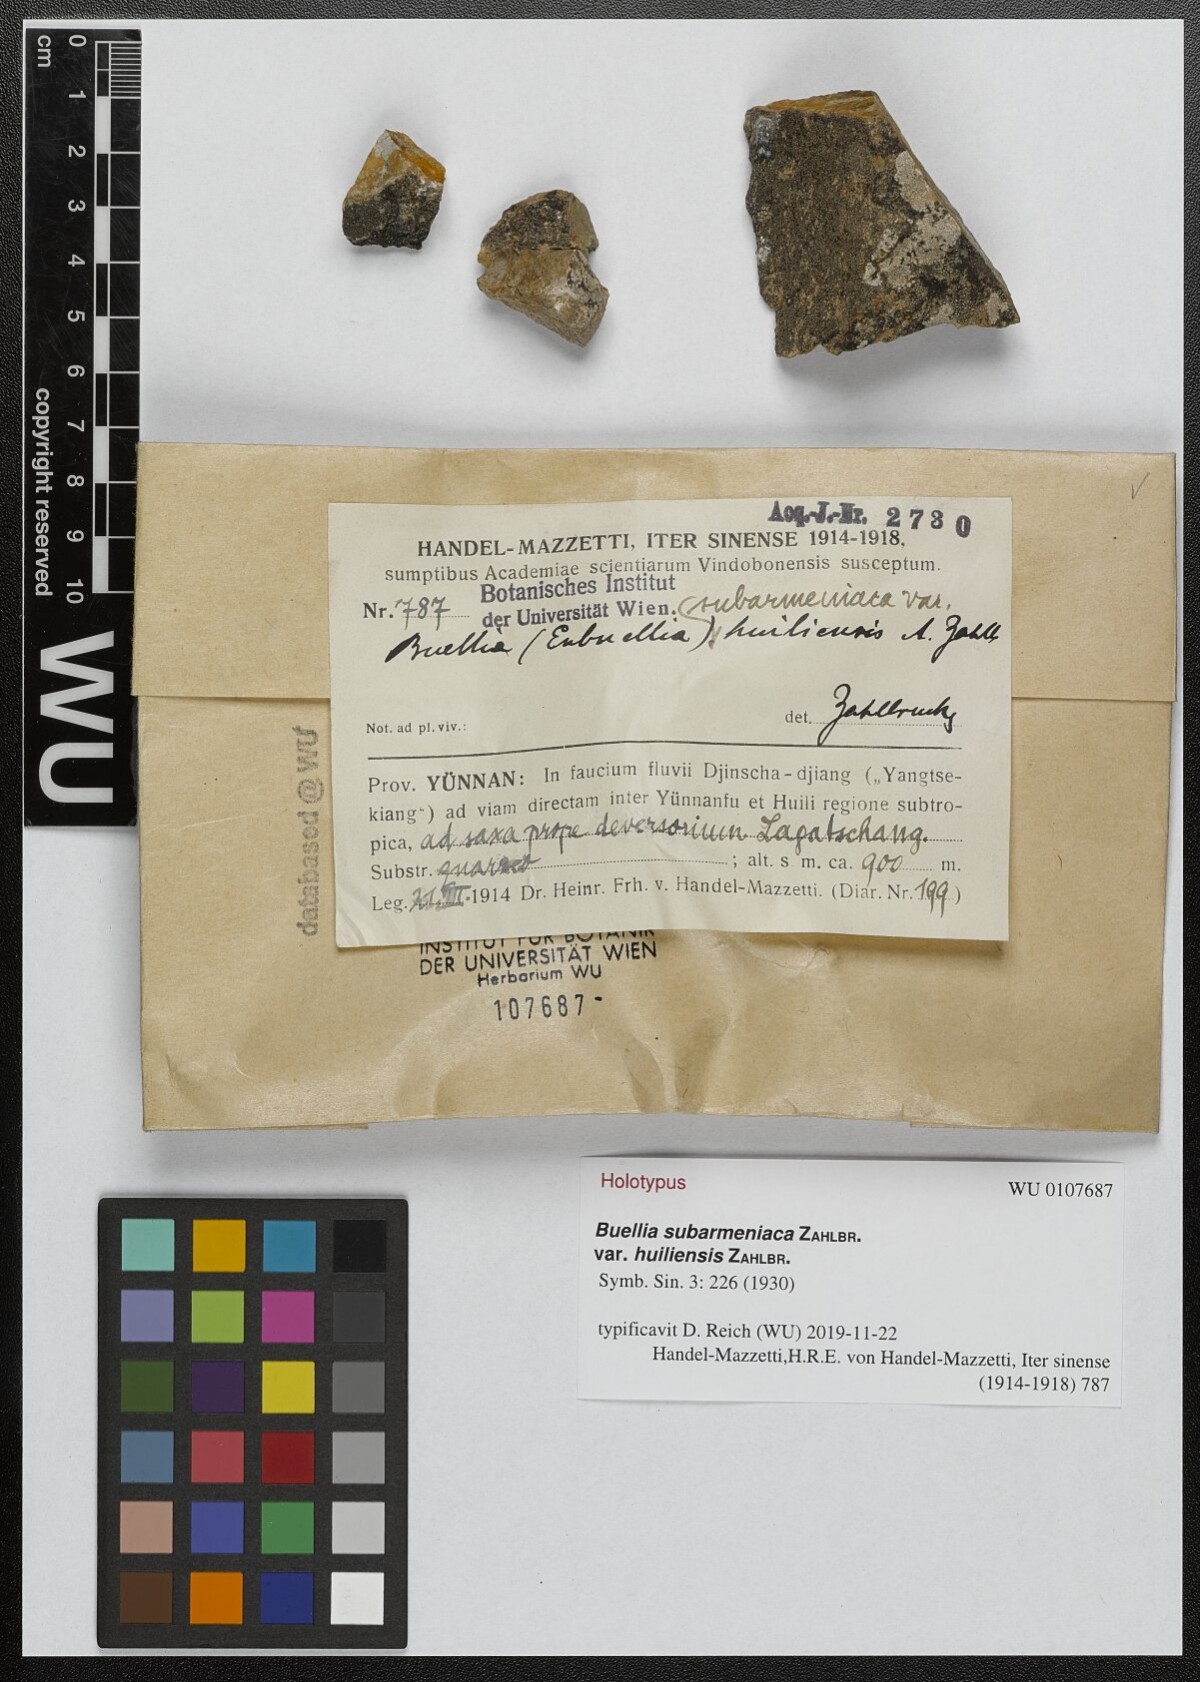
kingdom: Fungi
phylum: Ascomycota
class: Lecanoromycetes
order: Caliciales
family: Physciaceae
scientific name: Physciaceae
